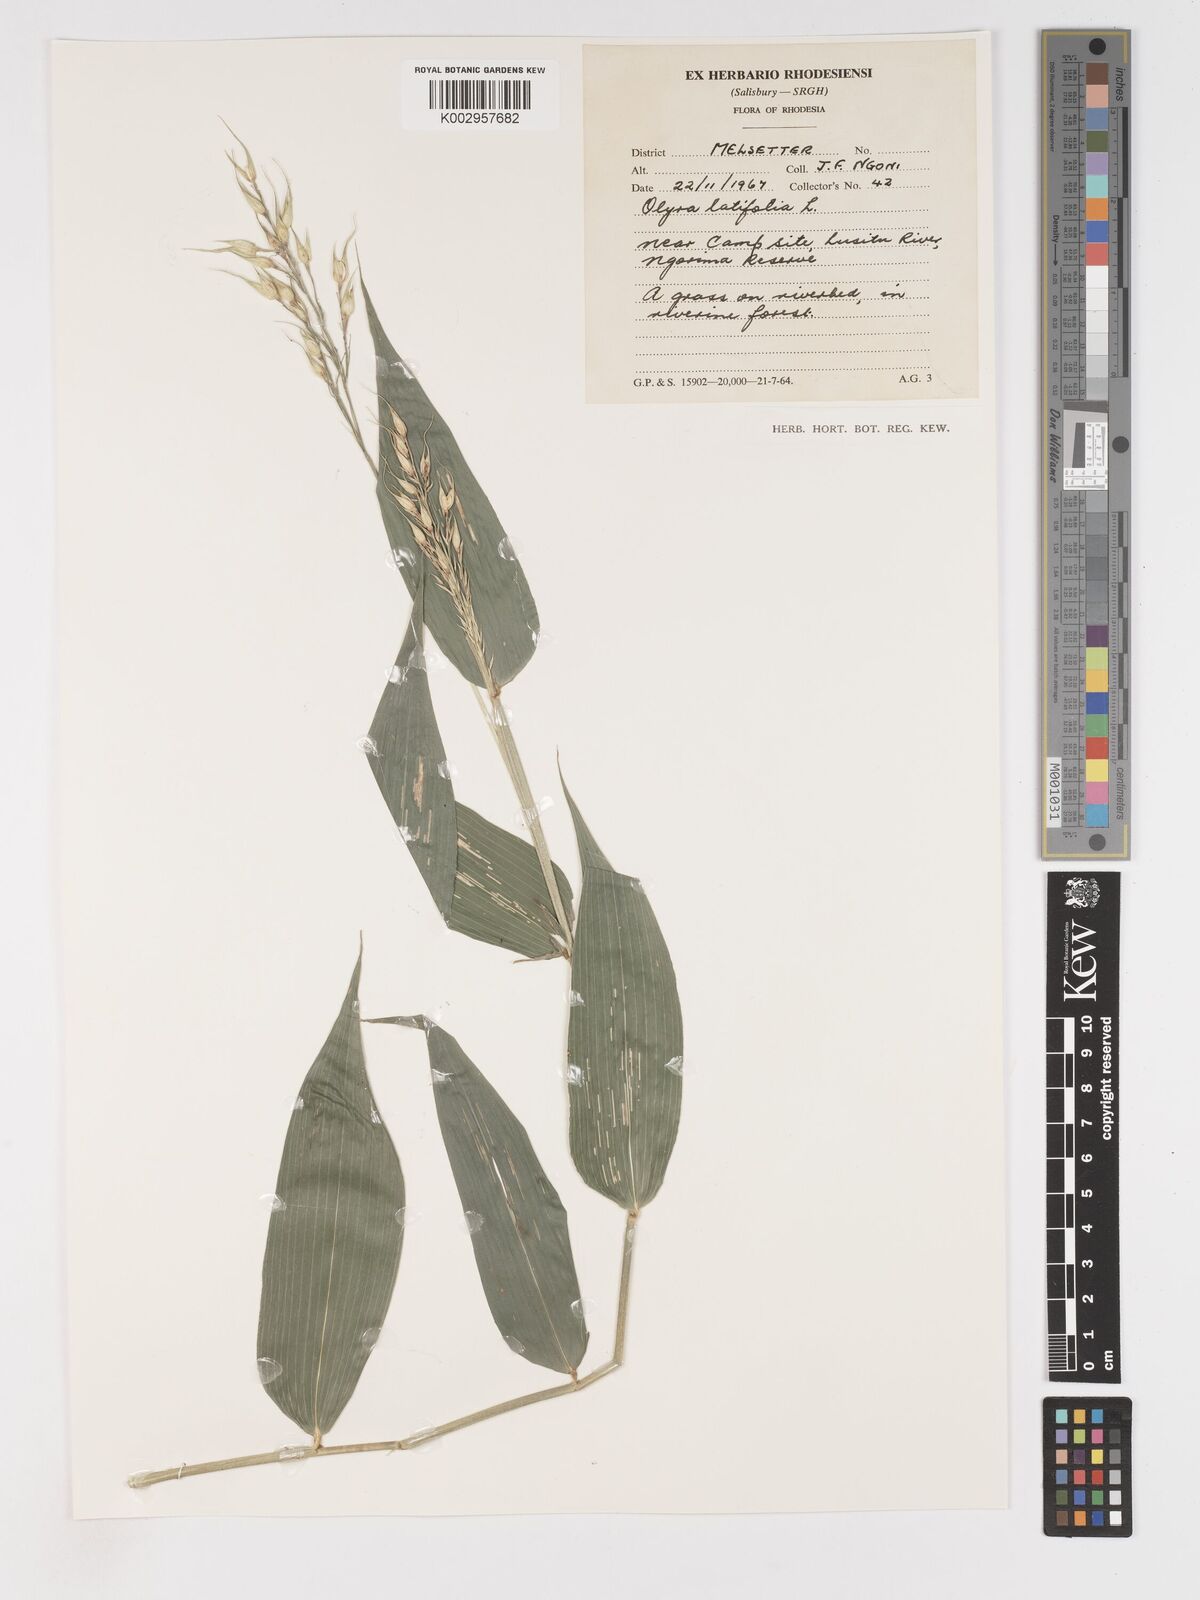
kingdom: Plantae
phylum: Tracheophyta
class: Liliopsida
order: Poales
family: Poaceae
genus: Olyra
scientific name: Olyra latifolia
